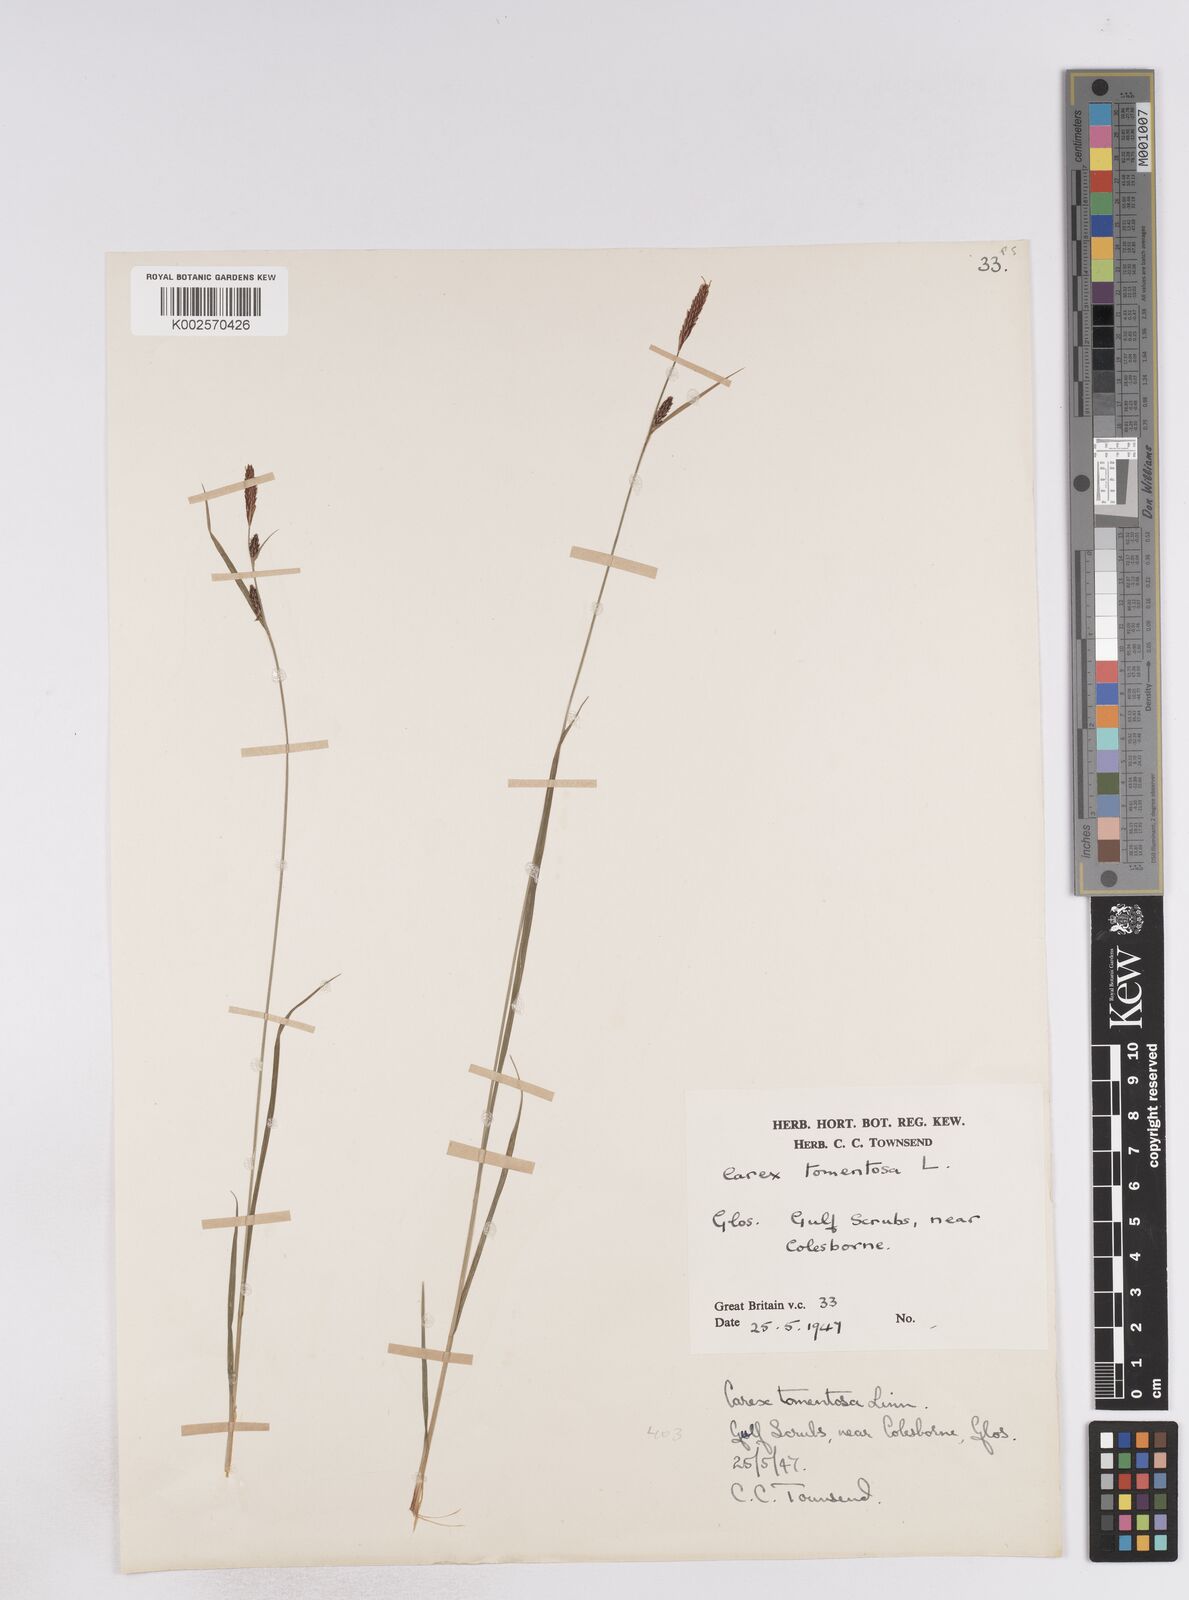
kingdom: Plantae
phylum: Tracheophyta
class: Liliopsida
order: Poales
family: Cyperaceae
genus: Carex
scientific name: Carex montana
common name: Soft-leaved sedge
